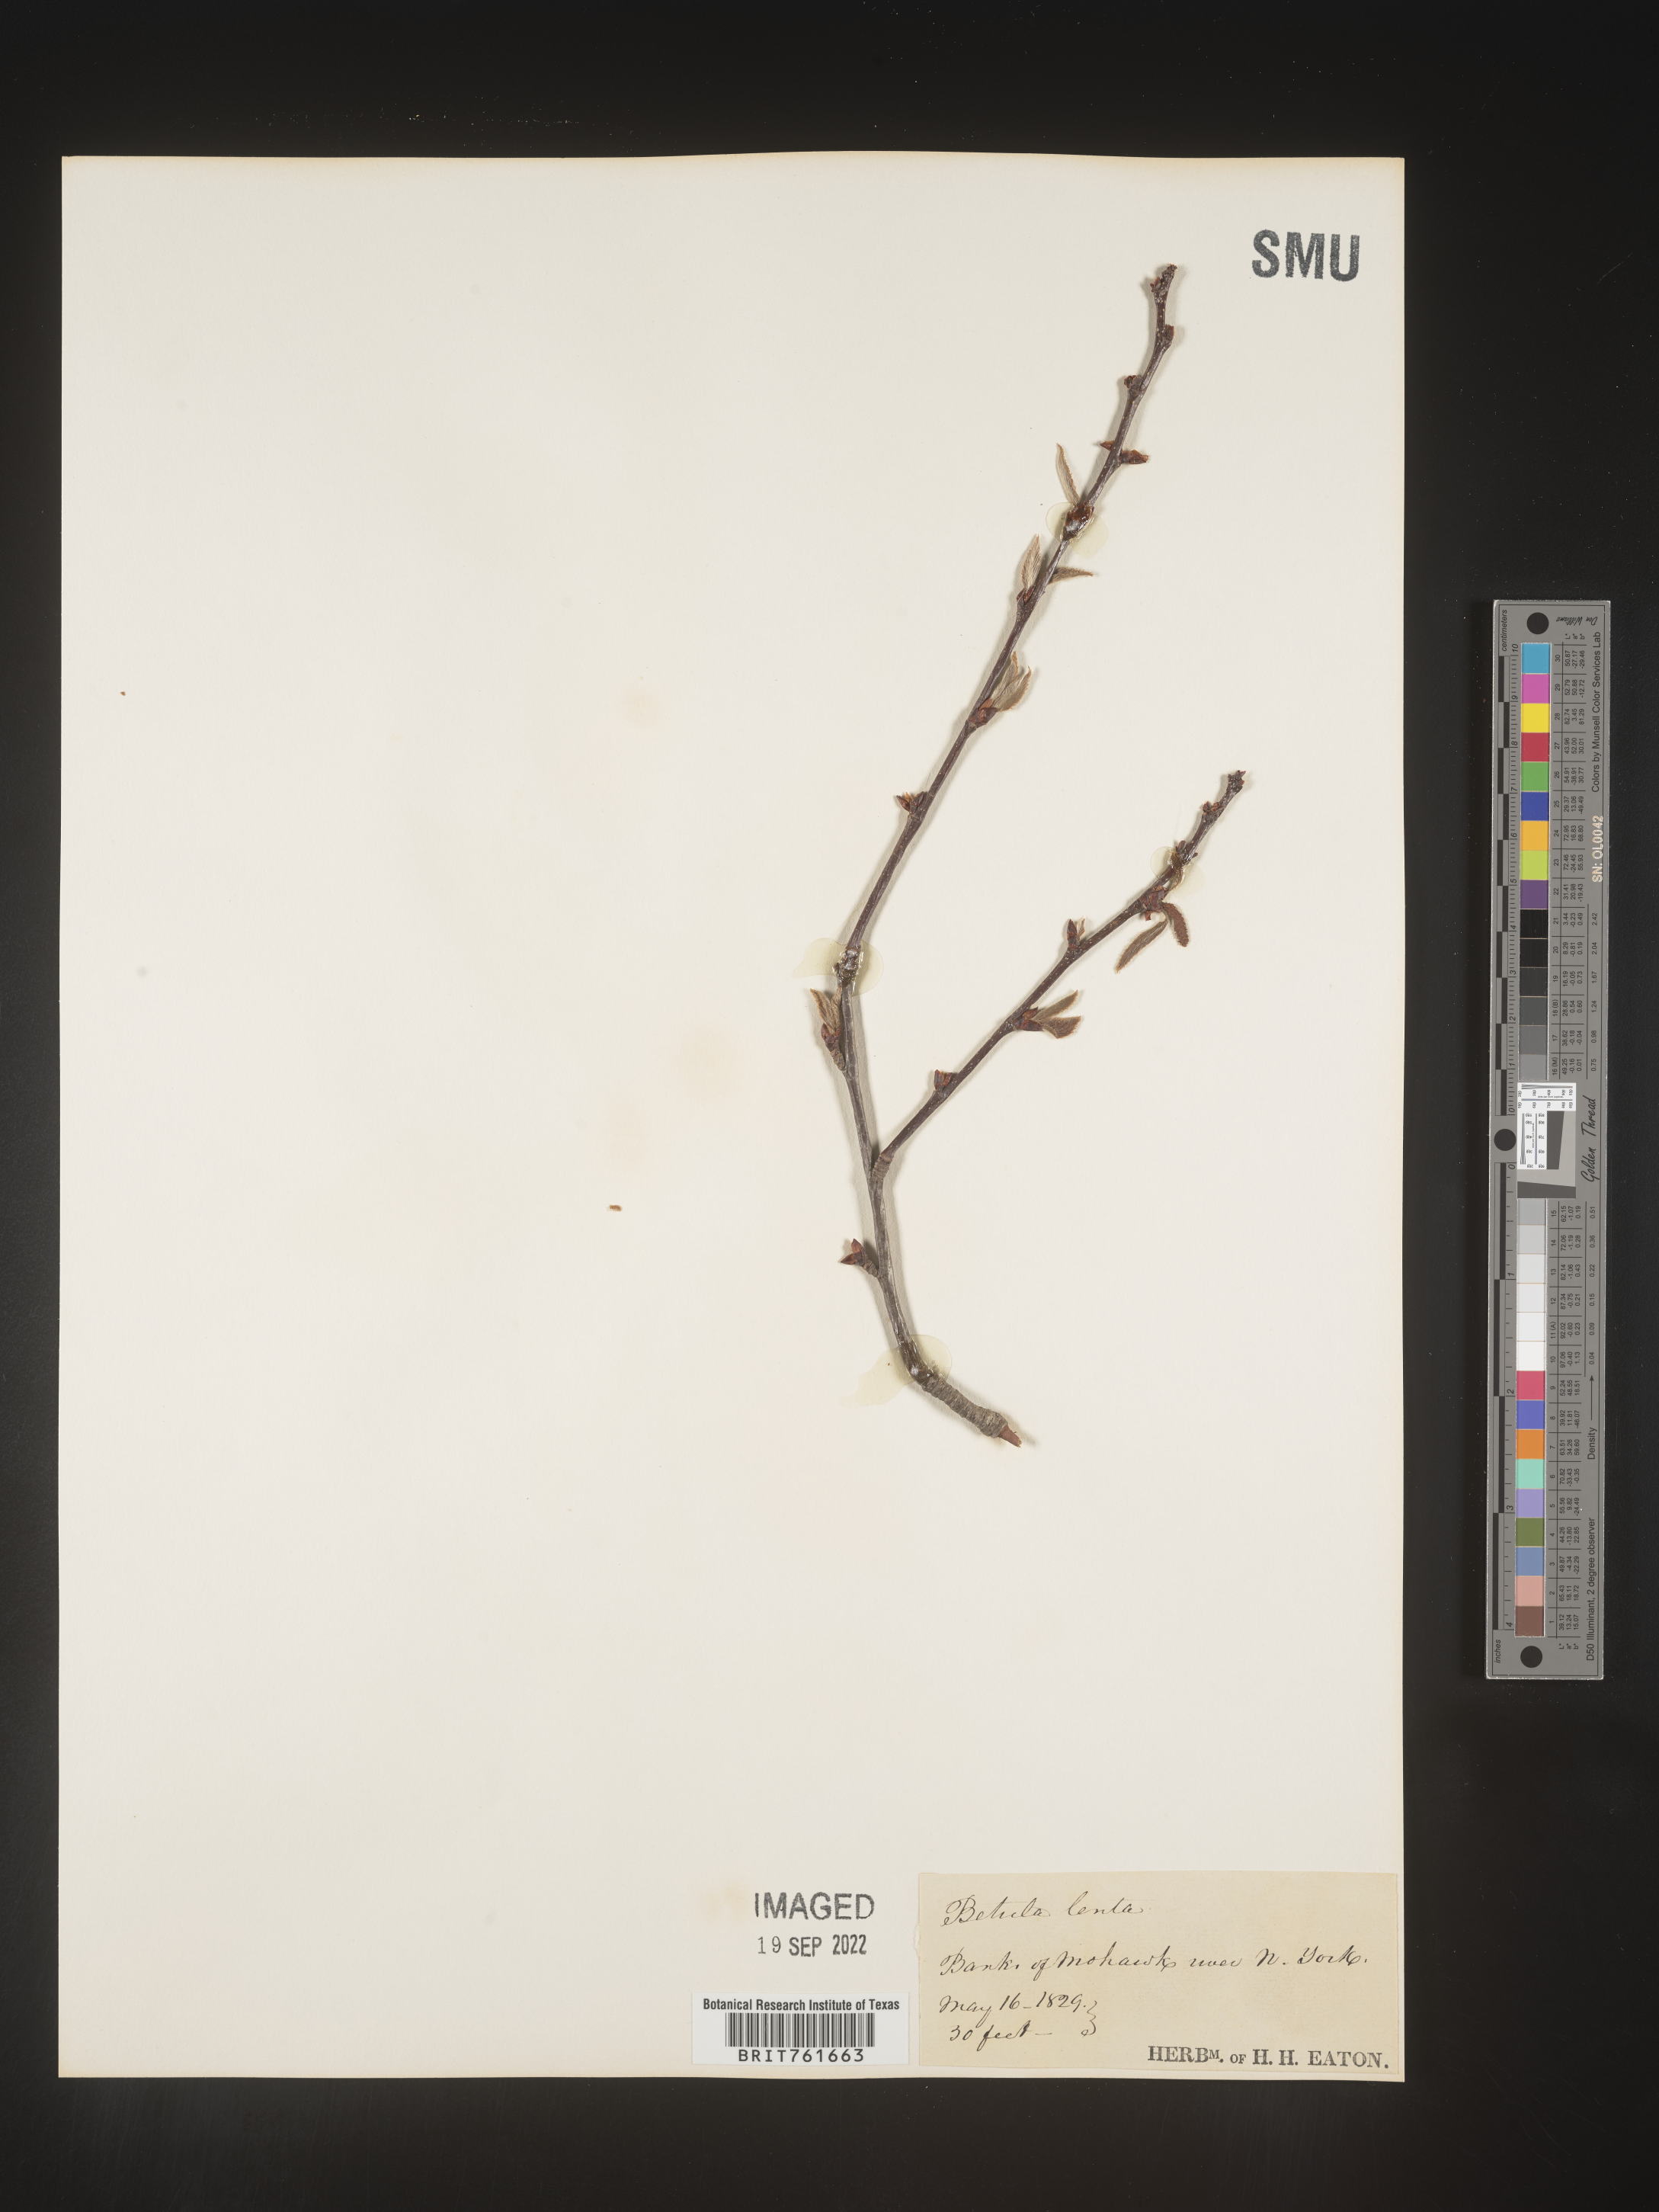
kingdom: Plantae
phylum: Tracheophyta
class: Magnoliopsida
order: Fagales
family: Betulaceae
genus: Betula
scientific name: Betula lenta
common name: Black birch
